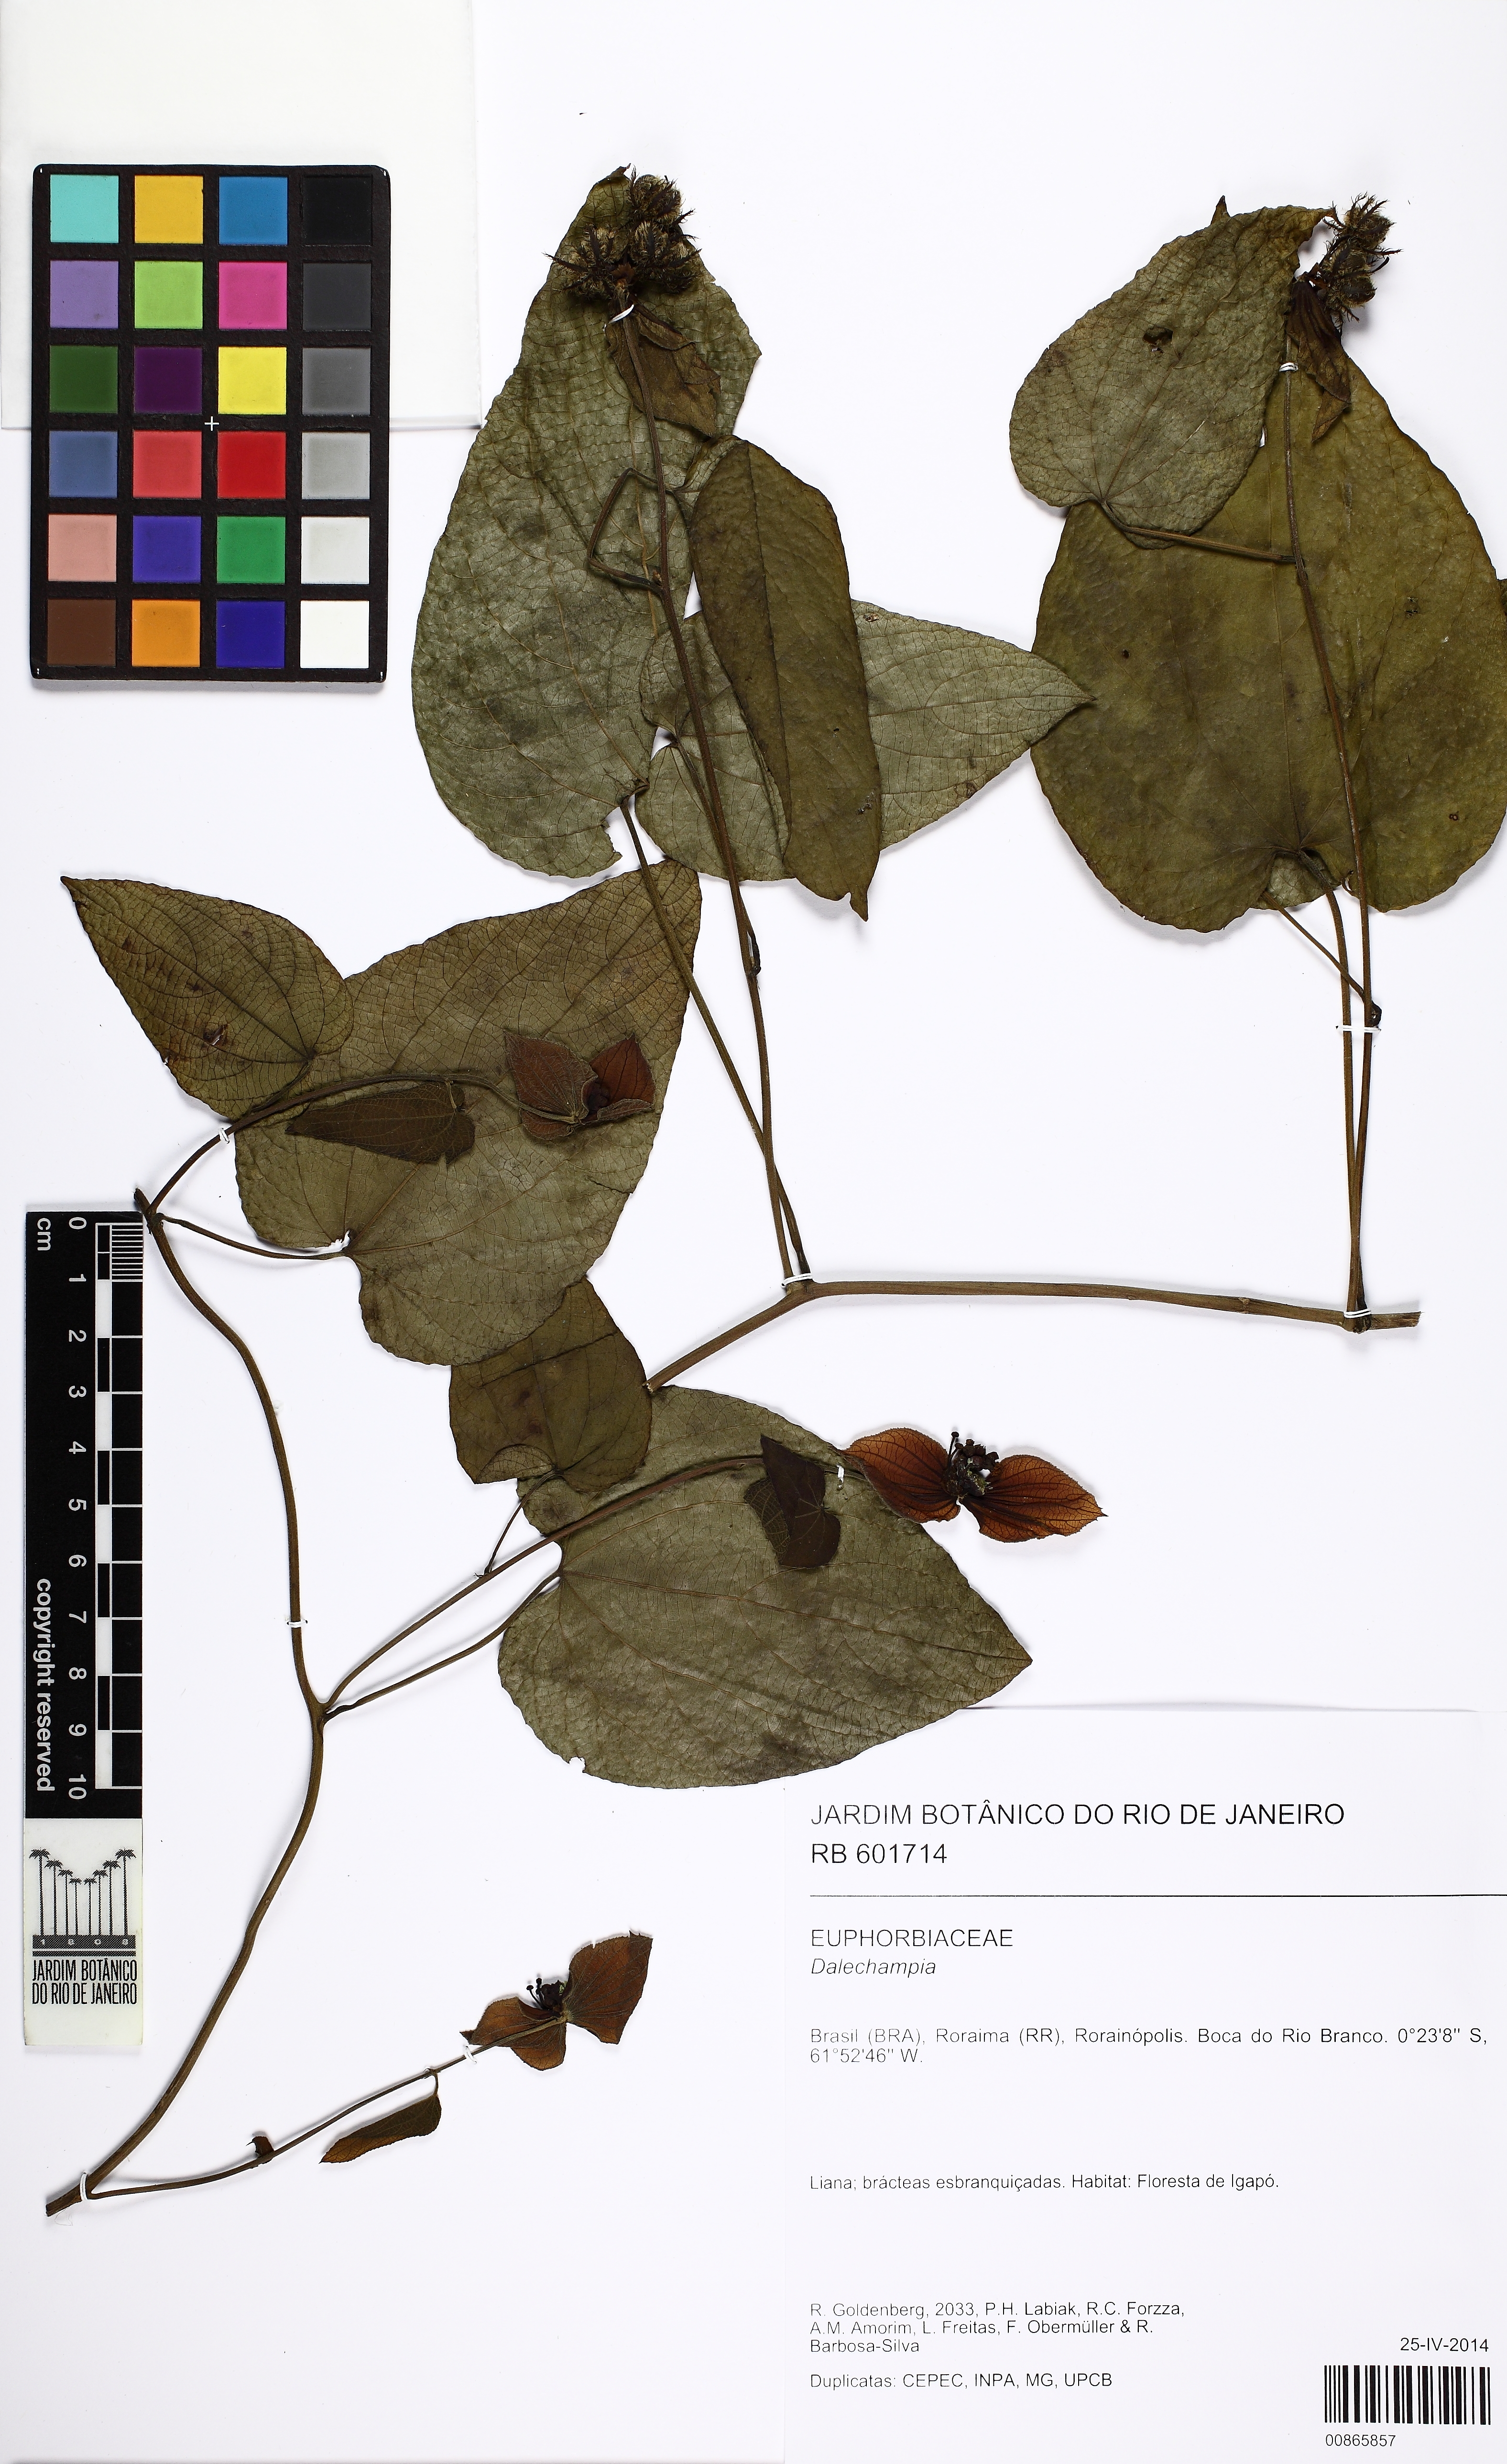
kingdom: Plantae
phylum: Tracheophyta
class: Magnoliopsida
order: Malpighiales
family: Euphorbiaceae
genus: Dalechampia
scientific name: Dalechampia affinis
